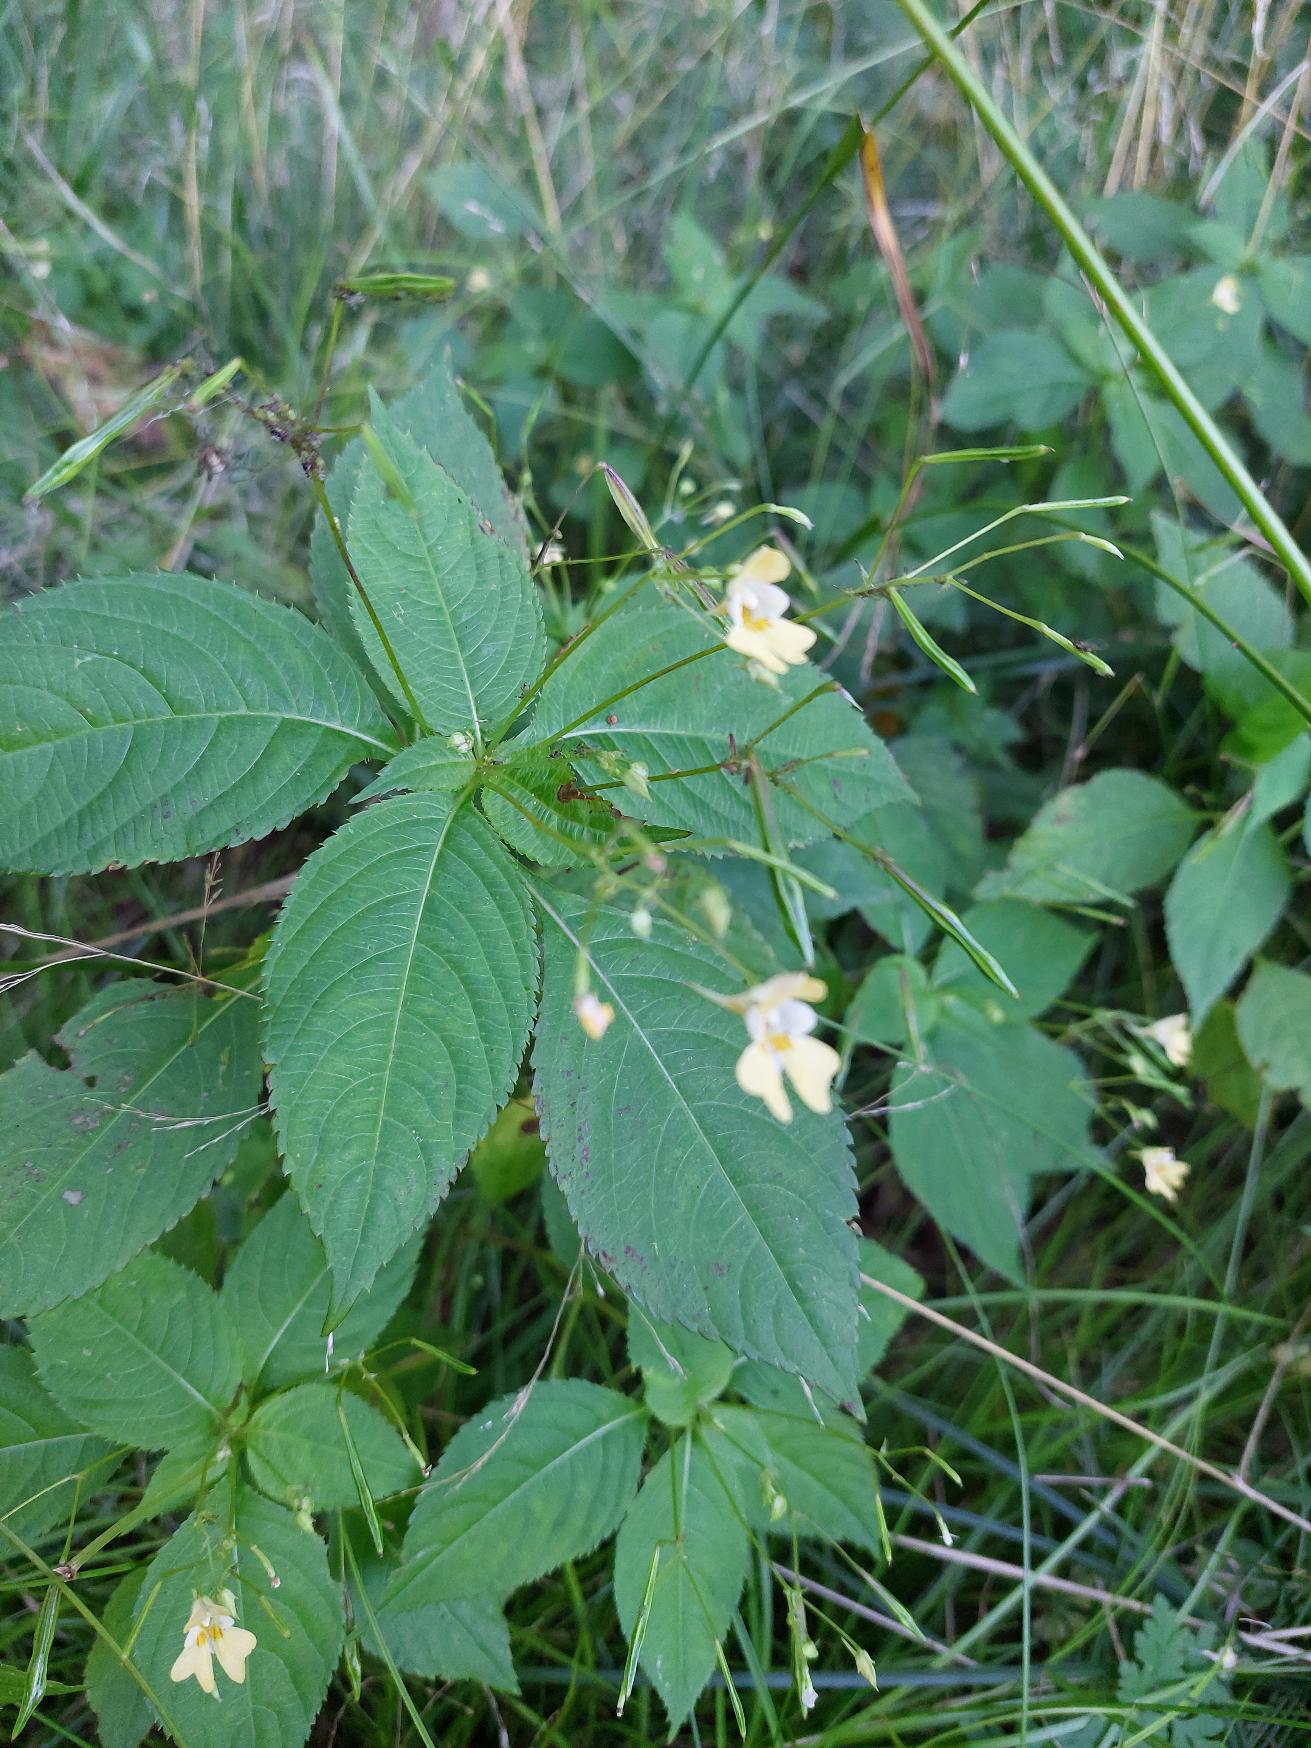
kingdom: Plantae
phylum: Tracheophyta
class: Magnoliopsida
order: Ericales
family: Balsaminaceae
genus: Impatiens
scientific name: Impatiens parviflora
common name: Småblomstret balsamin
